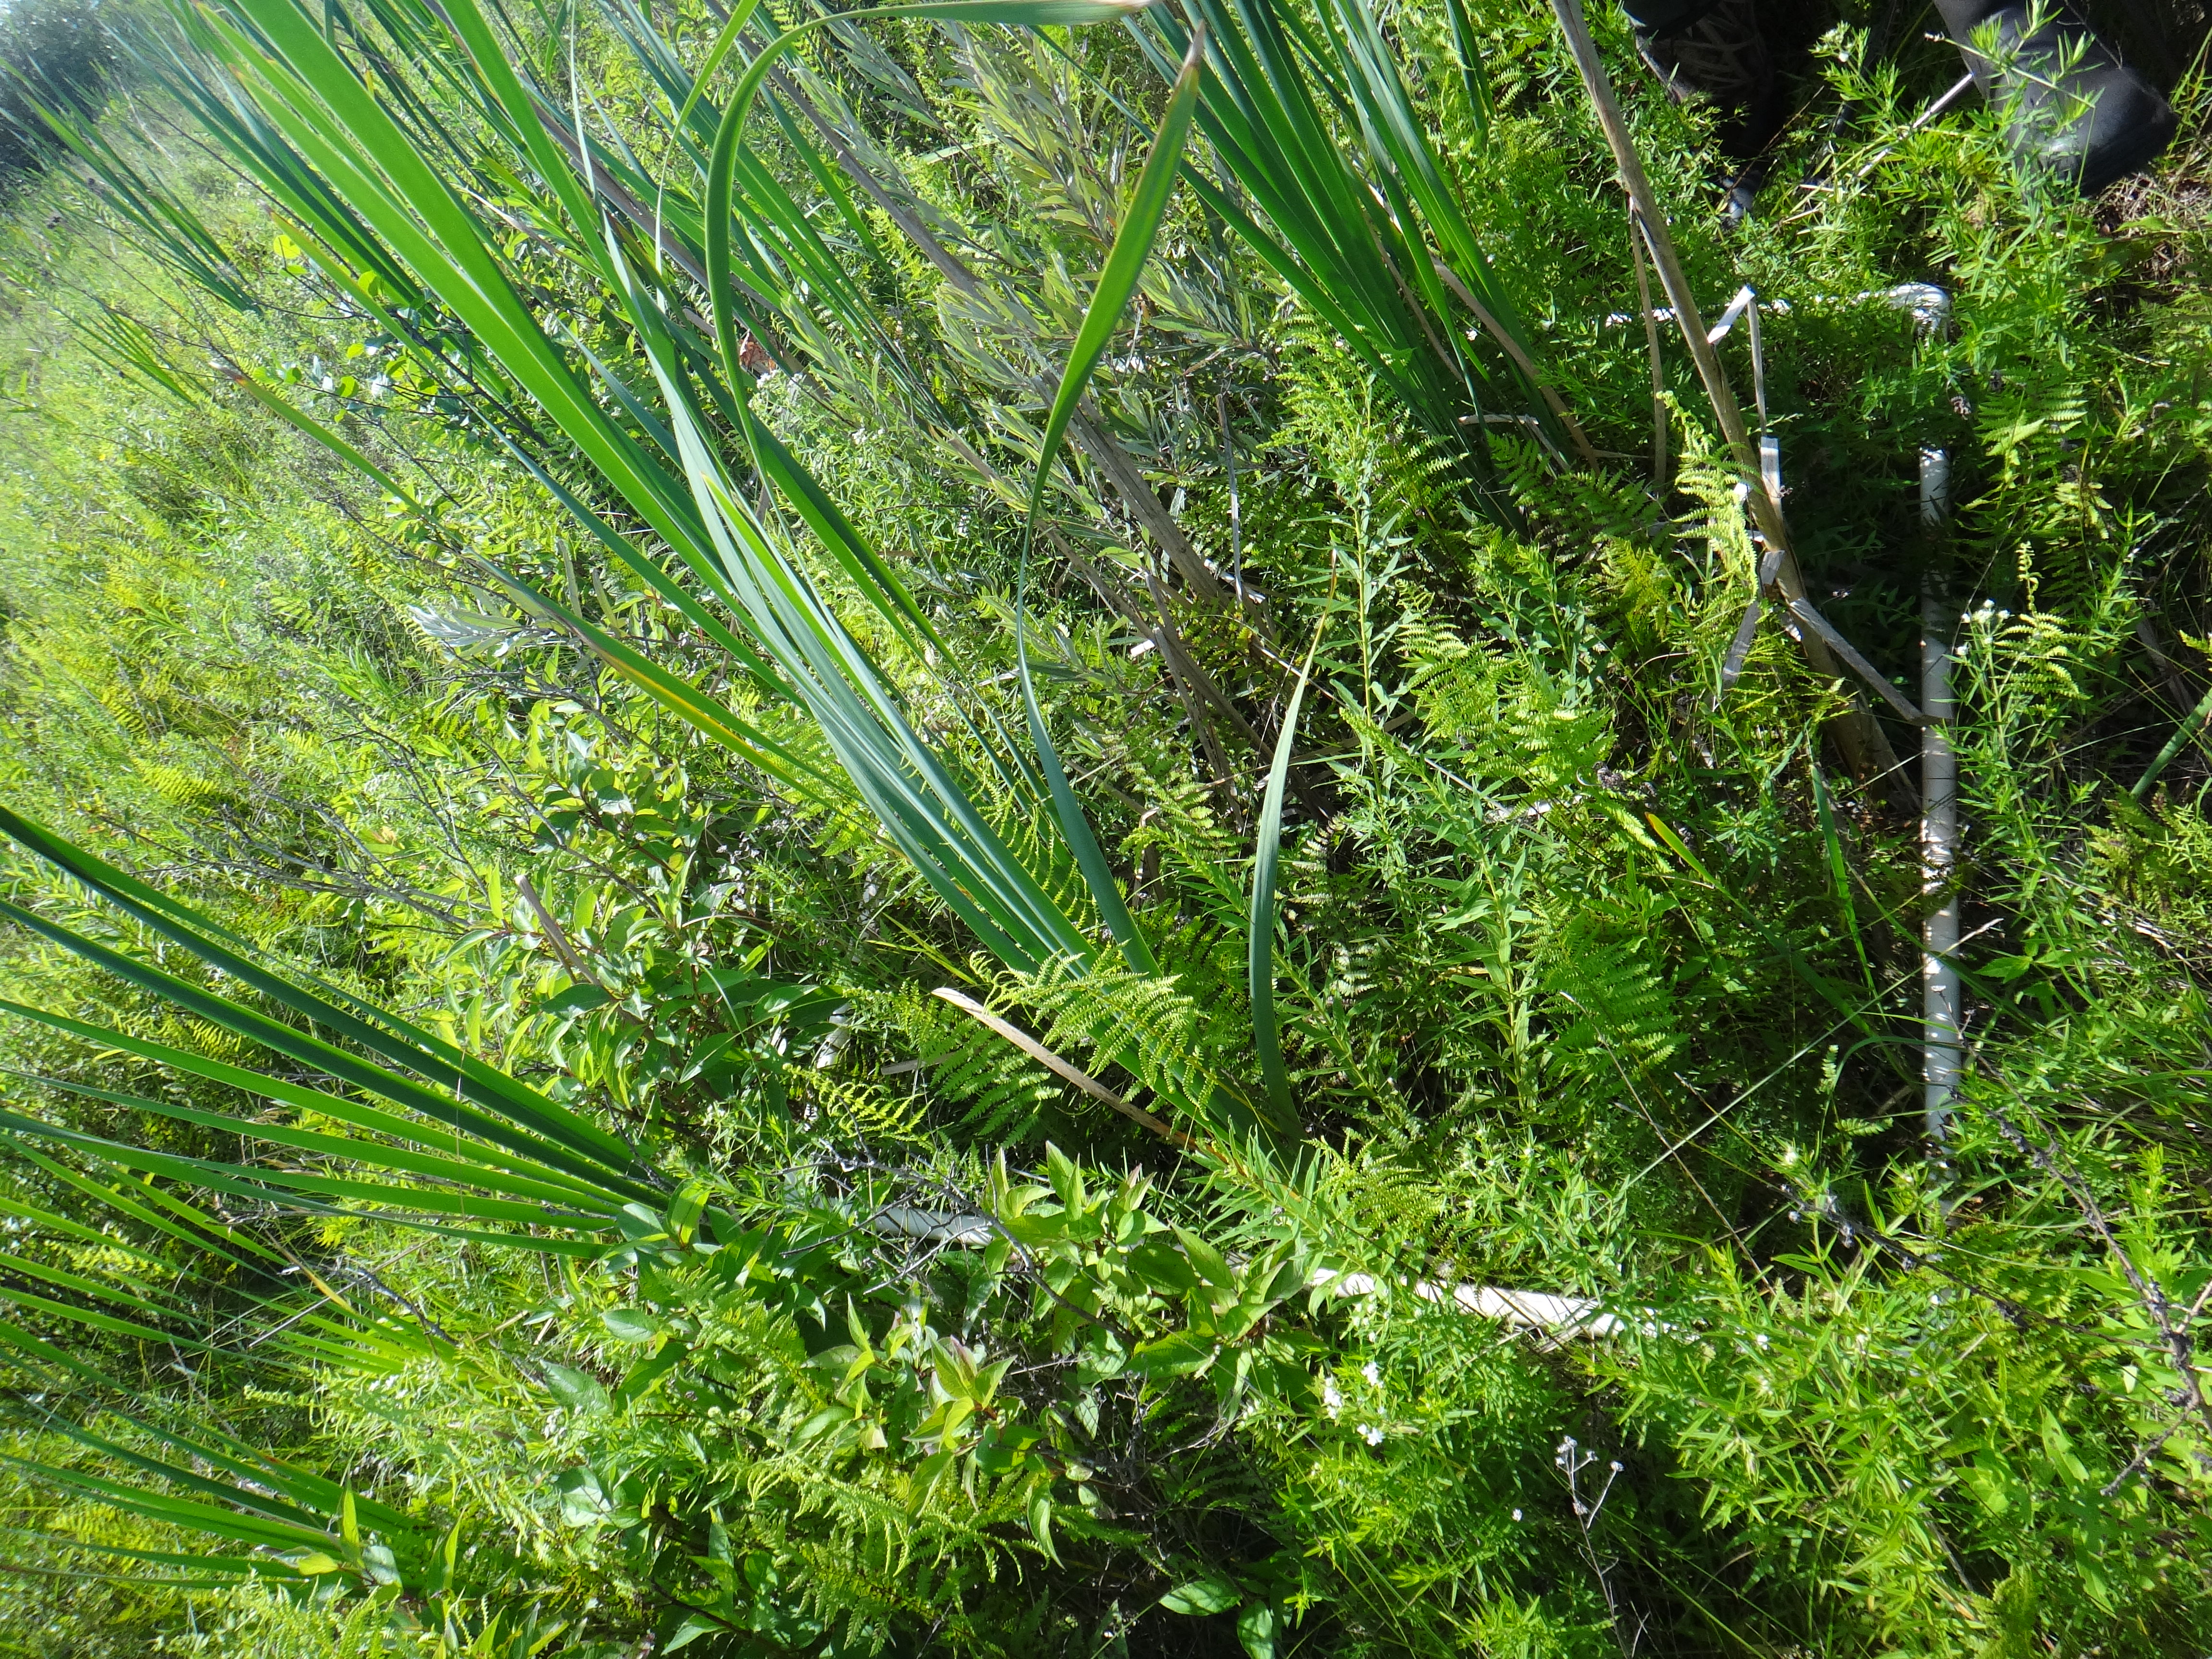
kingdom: Plantae
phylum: Tracheophyta
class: Magnoliopsida
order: Lamiales
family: Lamiaceae
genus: Lycopus
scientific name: Lycopus uniflorus
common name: Northern bugleweed
